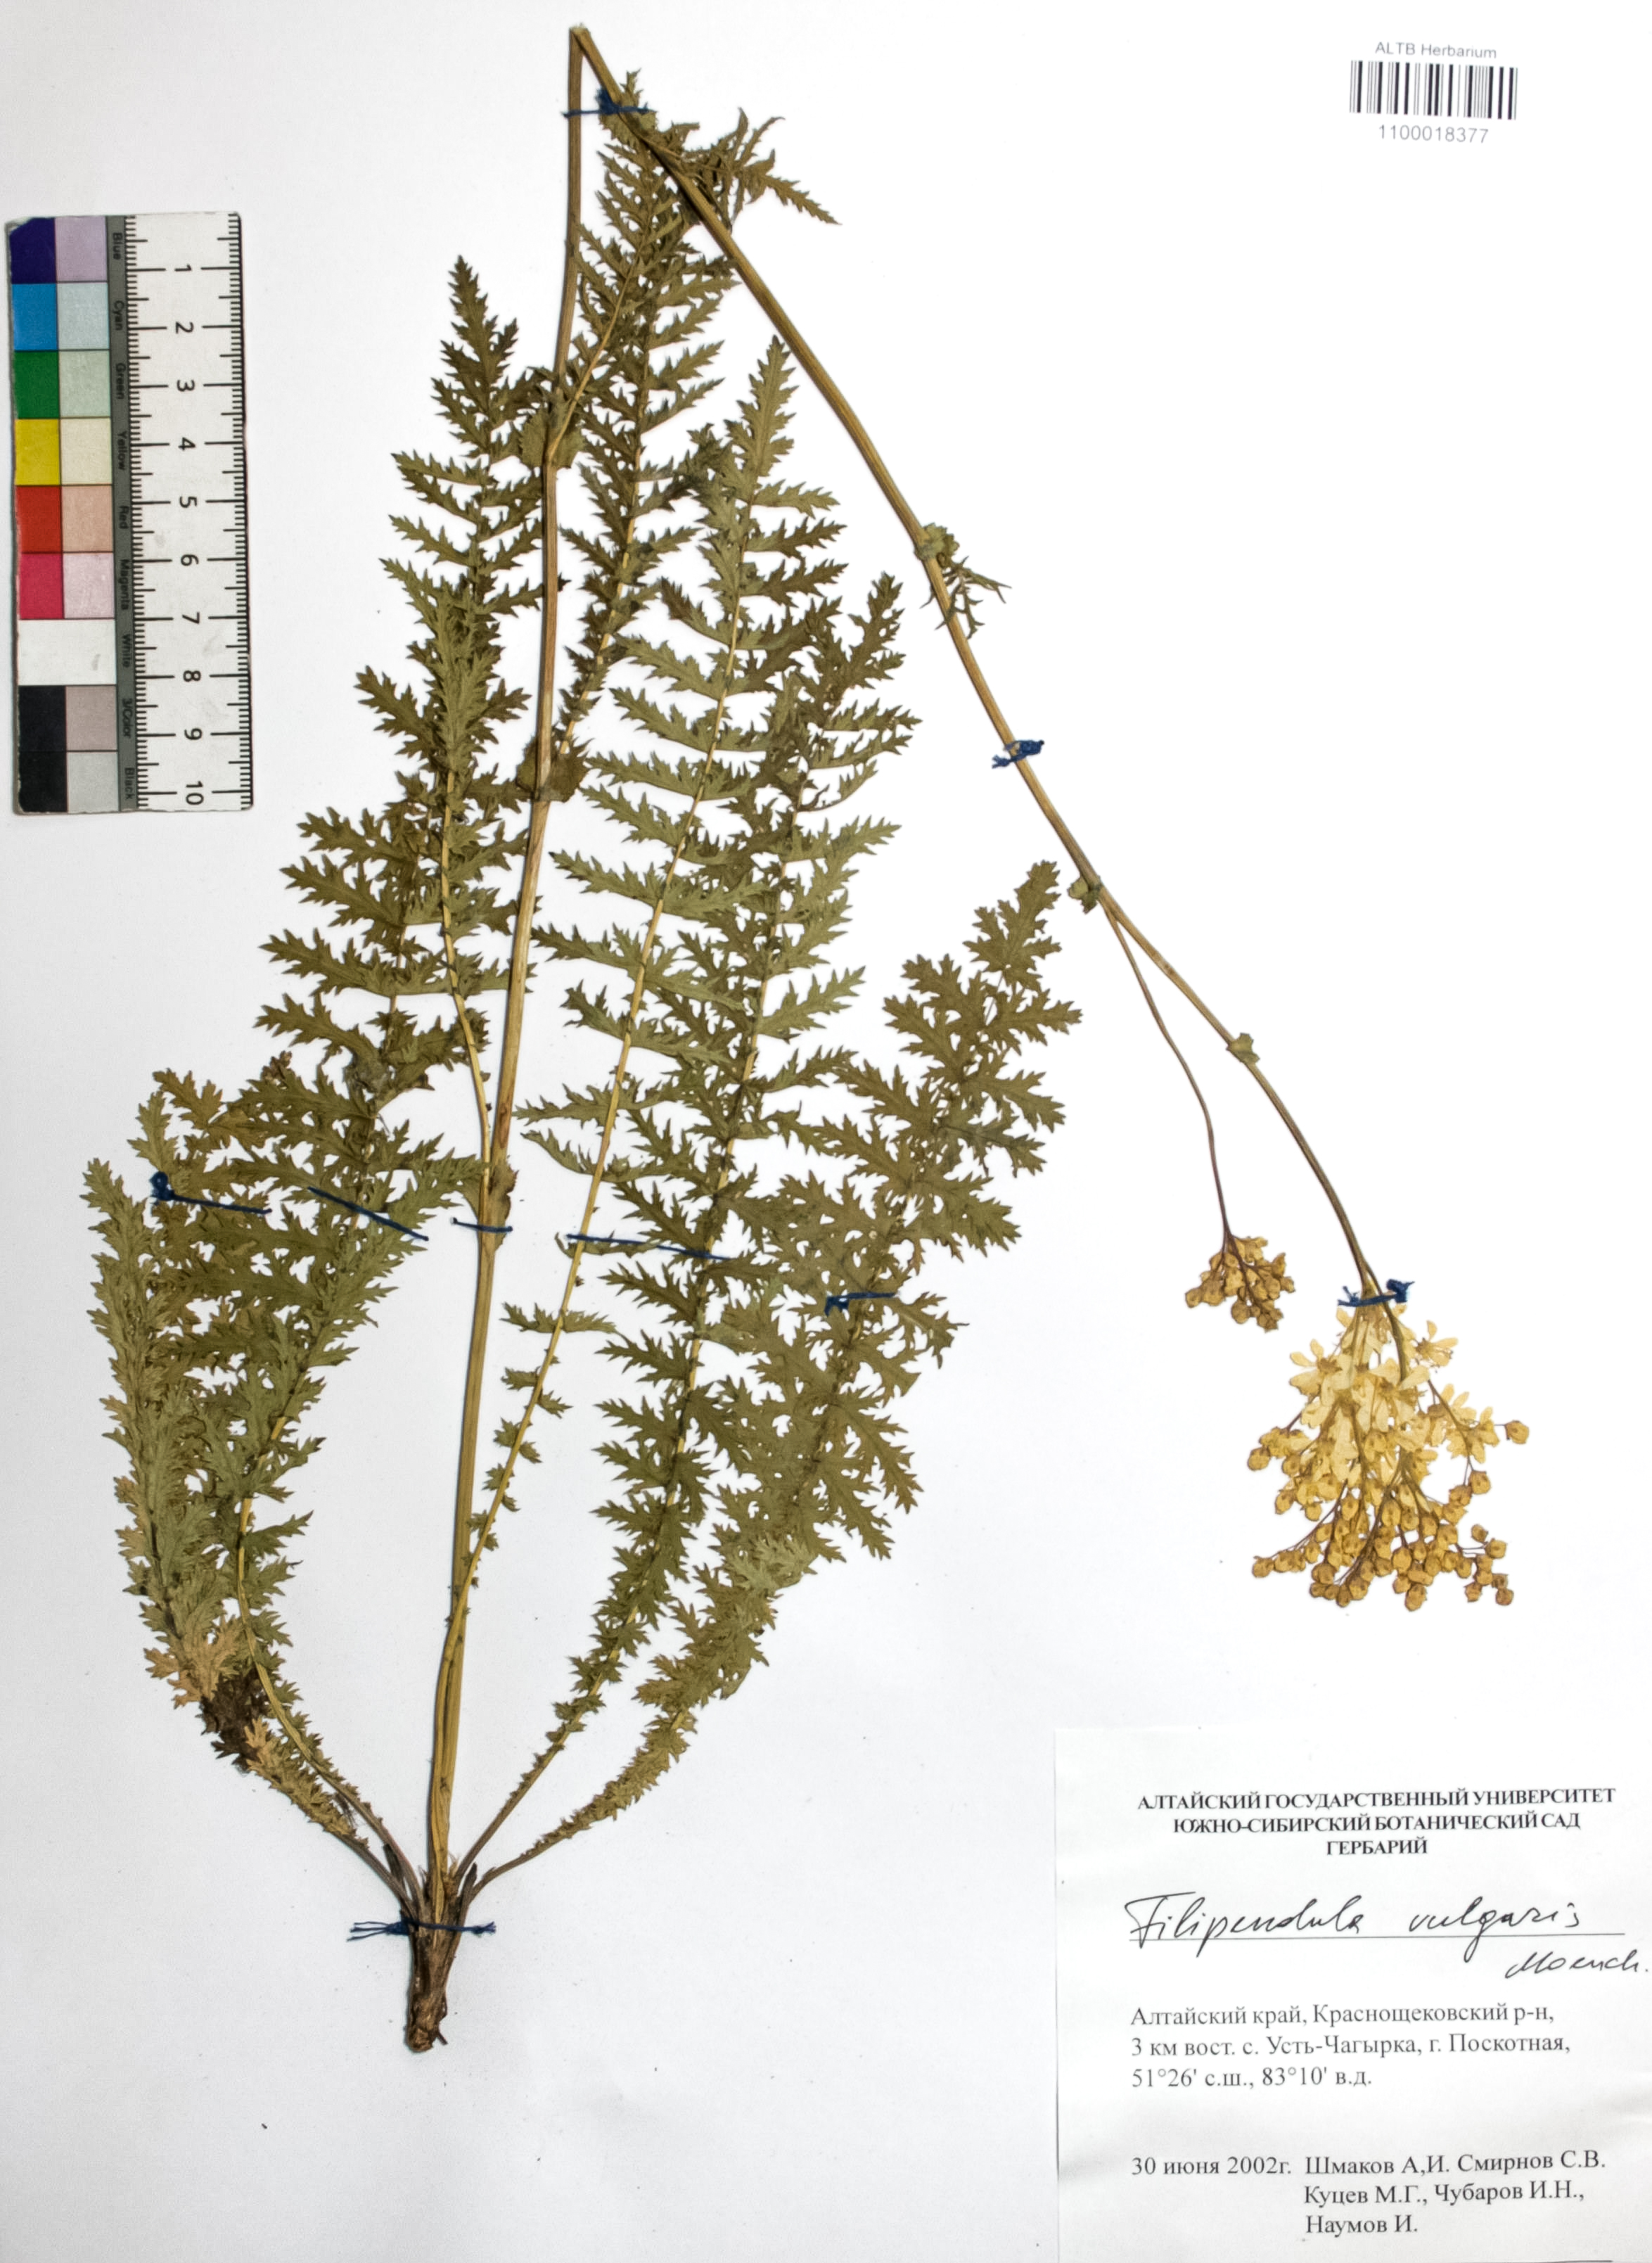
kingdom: Plantae
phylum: Tracheophyta
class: Magnoliopsida
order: Rosales
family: Rosaceae
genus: Filipendula
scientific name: Filipendula vulgaris
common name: Dropwort
